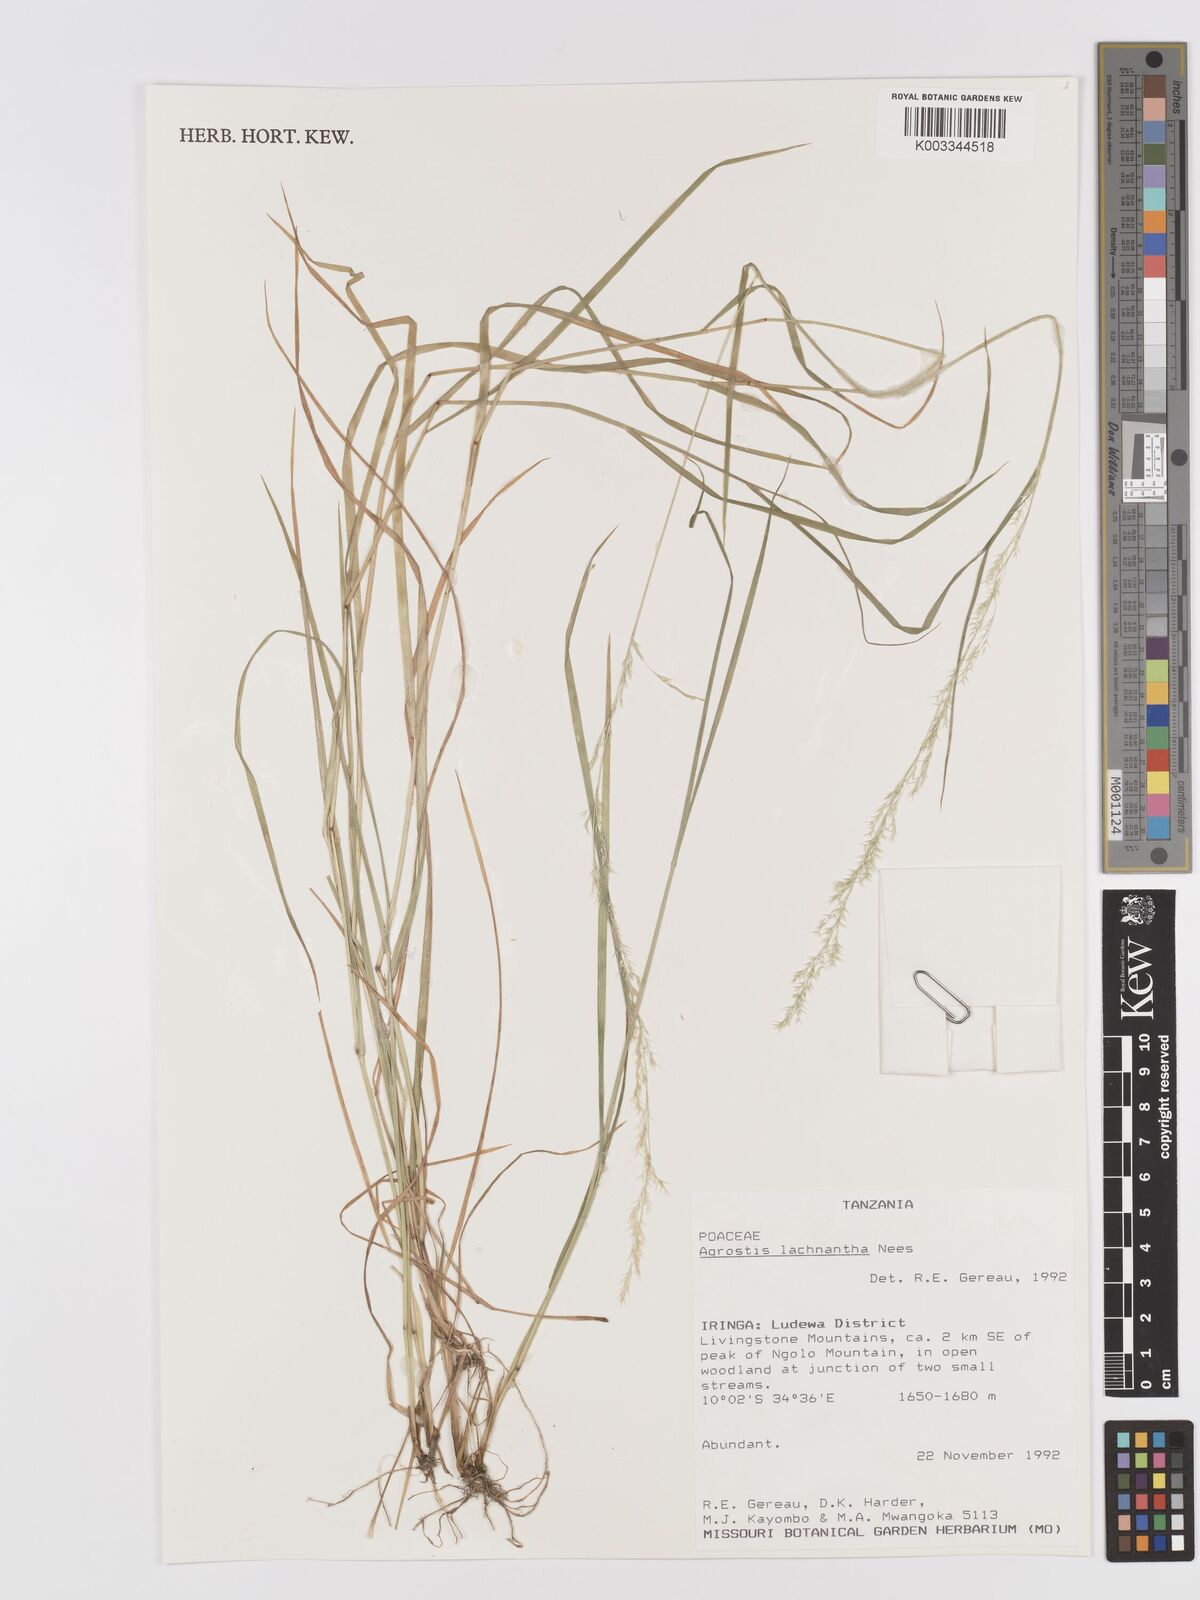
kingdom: Plantae
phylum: Tracheophyta
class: Liliopsida
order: Poales
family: Poaceae
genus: Lachnagrostis
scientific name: Lachnagrostis lachnantha
